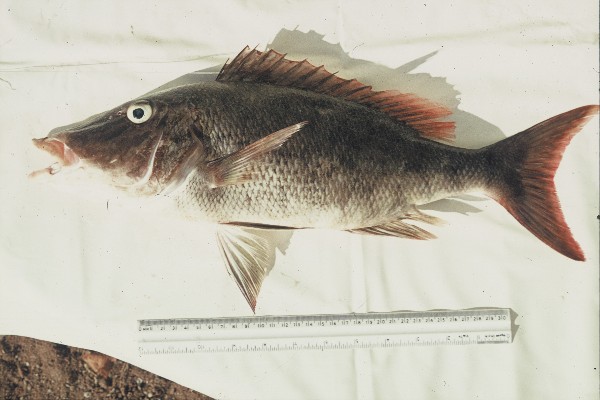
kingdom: Animalia
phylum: Chordata
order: Perciformes
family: Lethrinidae
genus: Lethrinus
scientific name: Lethrinus olivaceus
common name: Longnose emperor
